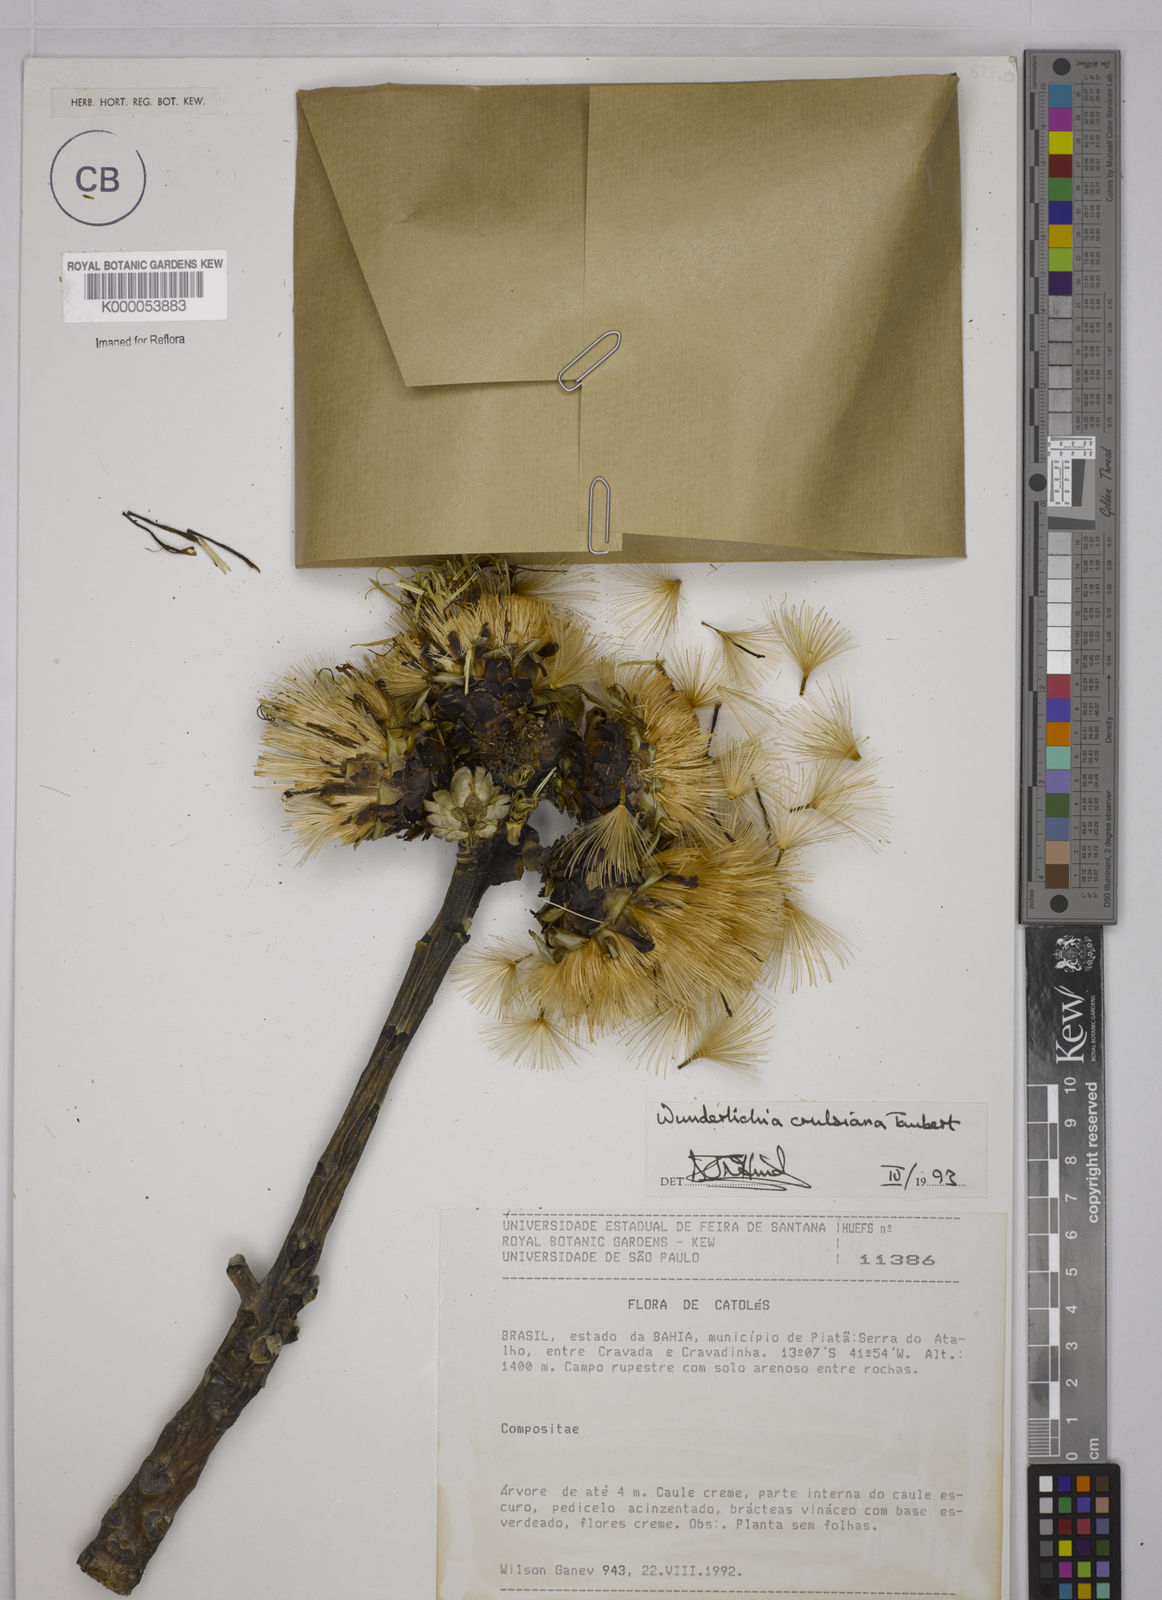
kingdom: Plantae
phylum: Tracheophyta
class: Magnoliopsida
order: Asterales
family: Asteraceae
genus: Wunderlichia
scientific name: Wunderlichia
